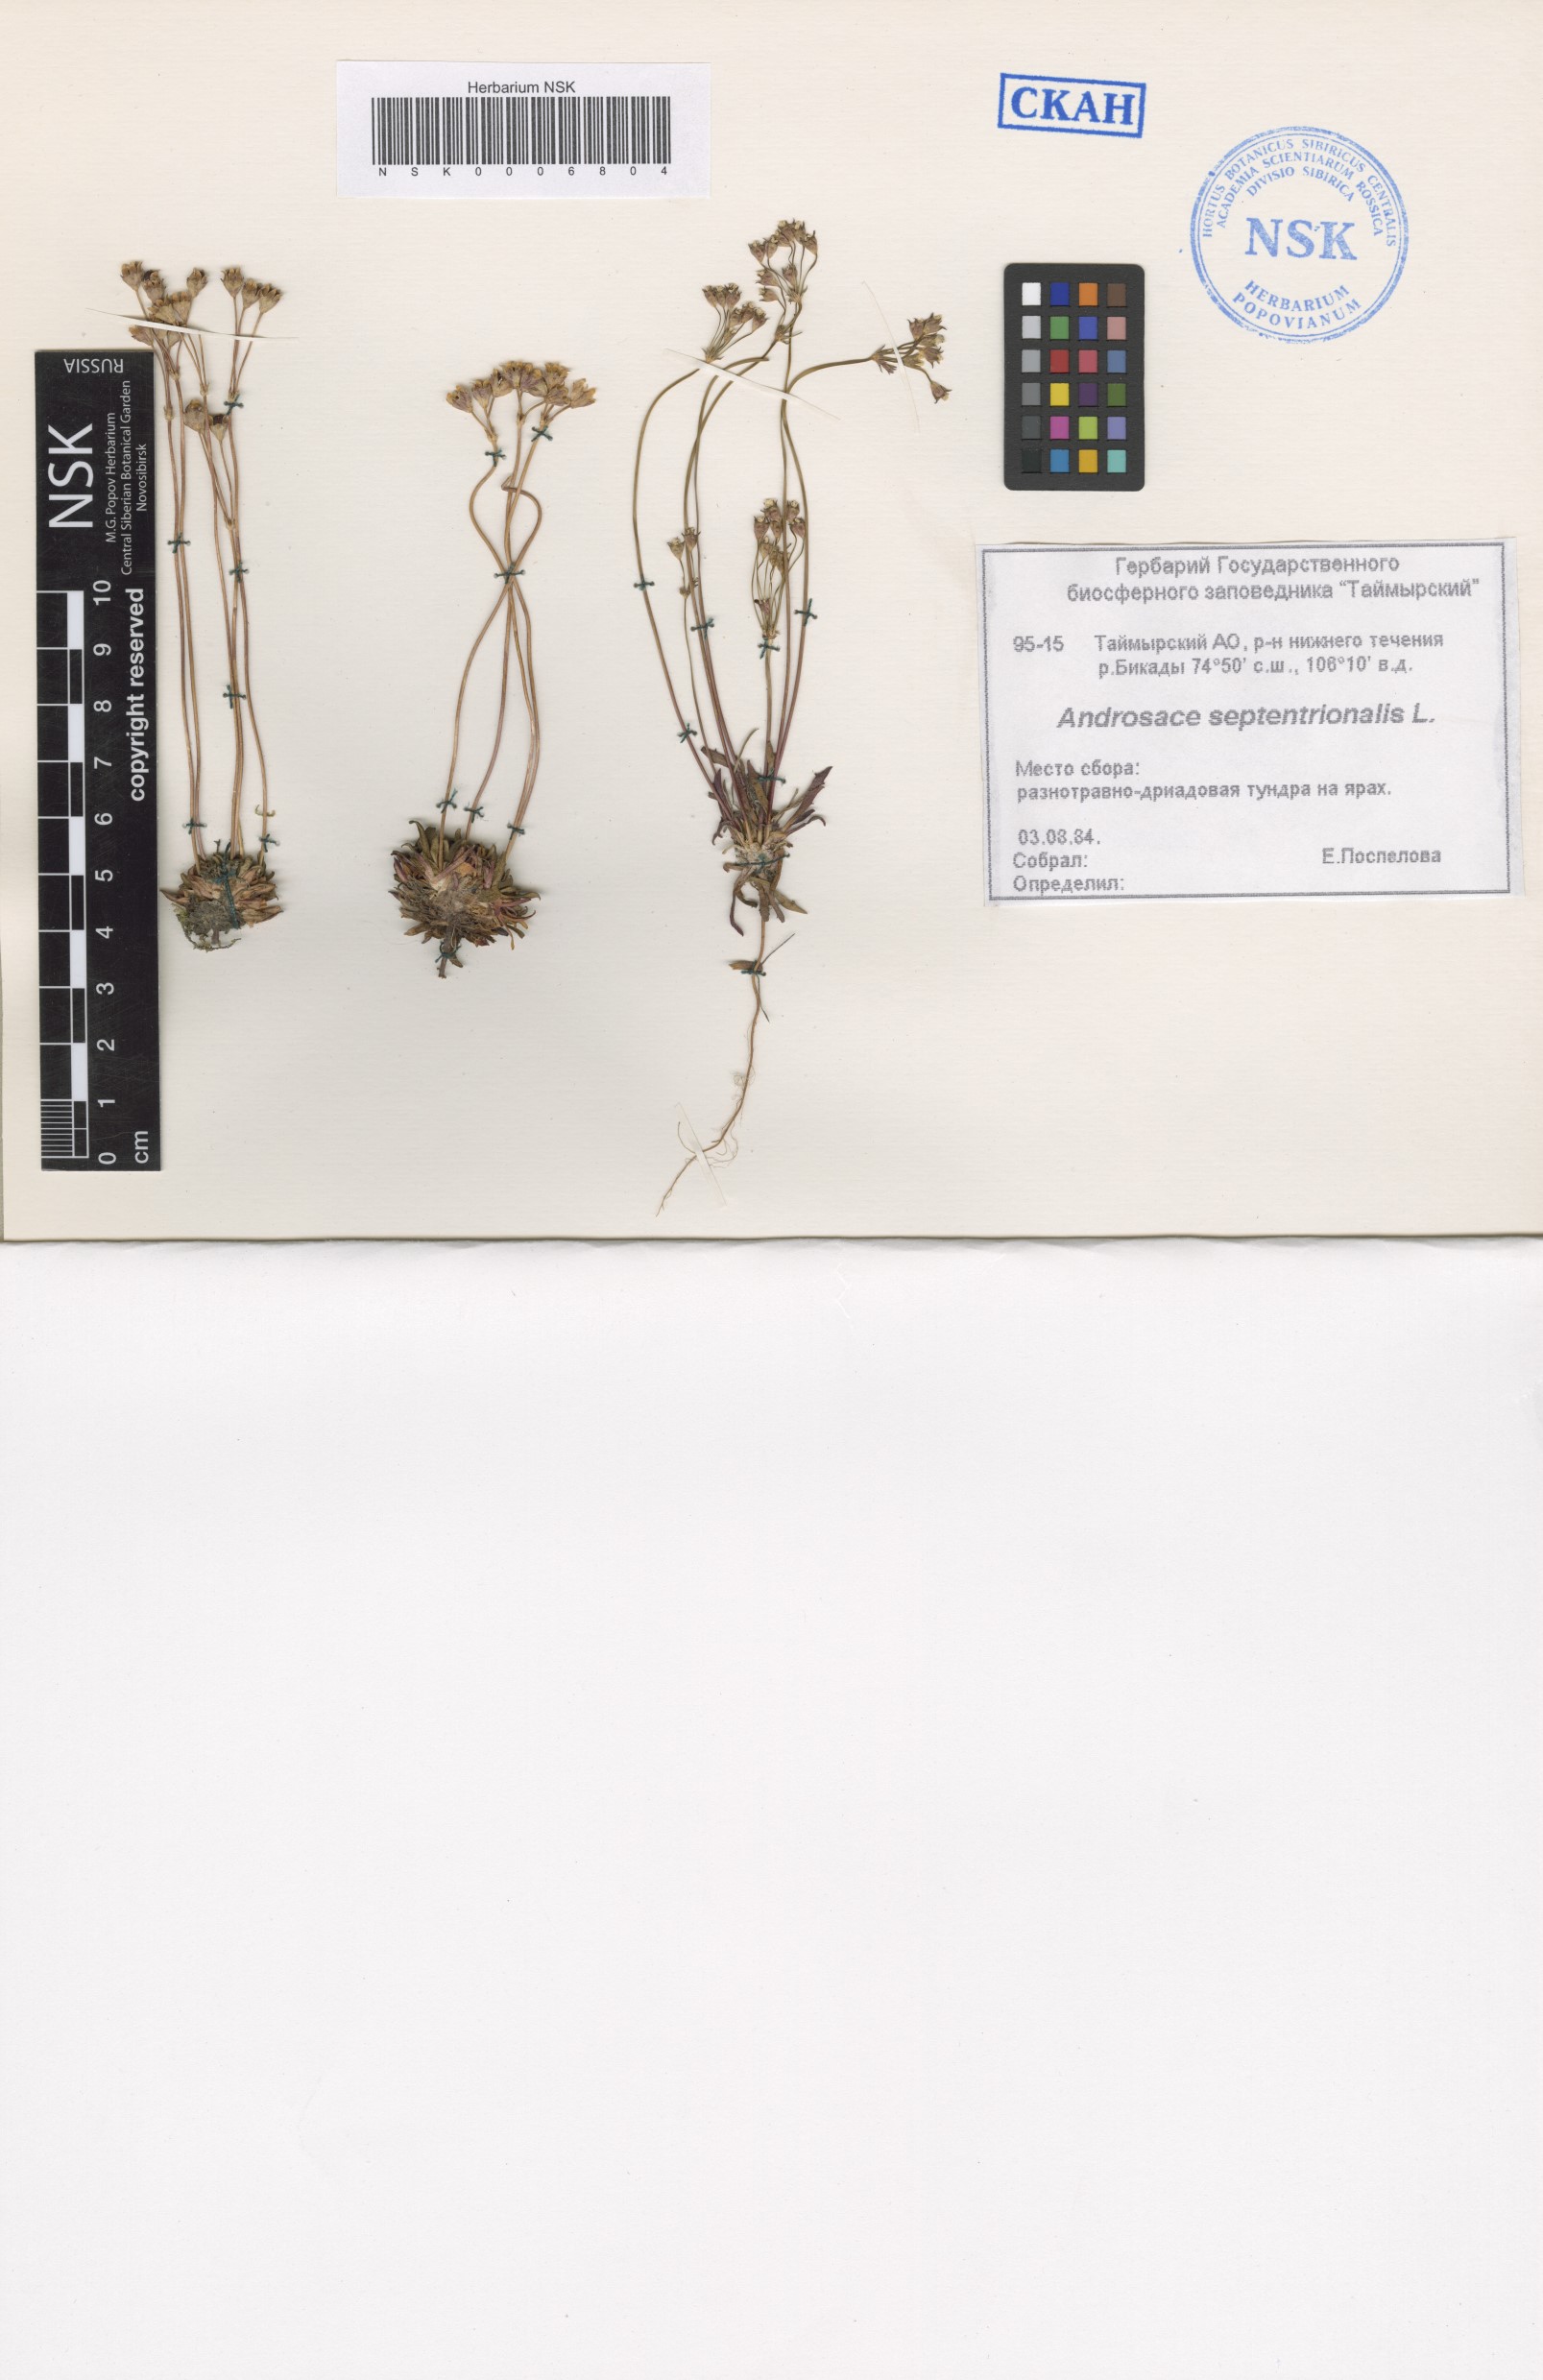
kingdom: Plantae
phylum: Tracheophyta
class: Magnoliopsida
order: Ericales
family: Primulaceae
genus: Androsace
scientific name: Androsace septentrionalis
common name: Hairy northern fairy-candelabra
